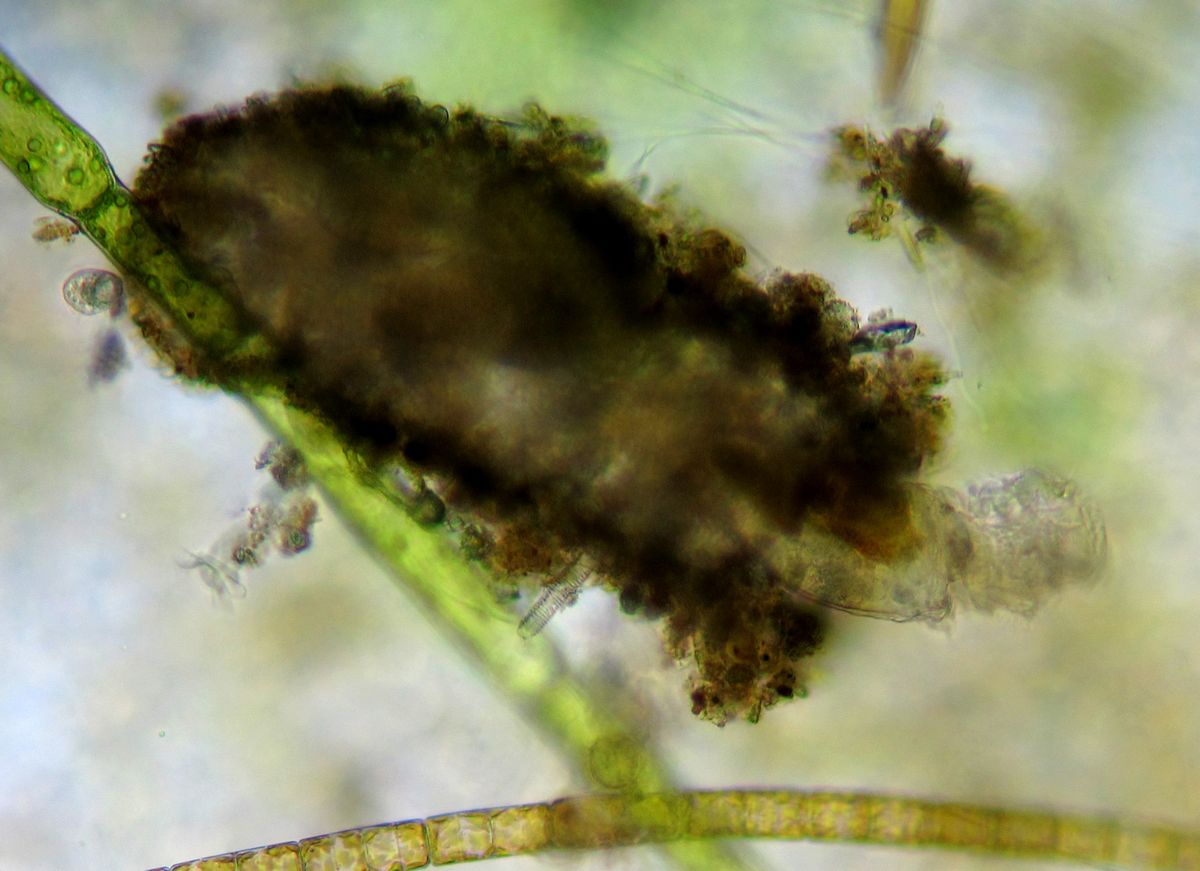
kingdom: Animalia
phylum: Rotifera
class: Eurotatoria
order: Flosculariaceae
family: Flosculariidae
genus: Ptygura
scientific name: Ptygura crystallina
